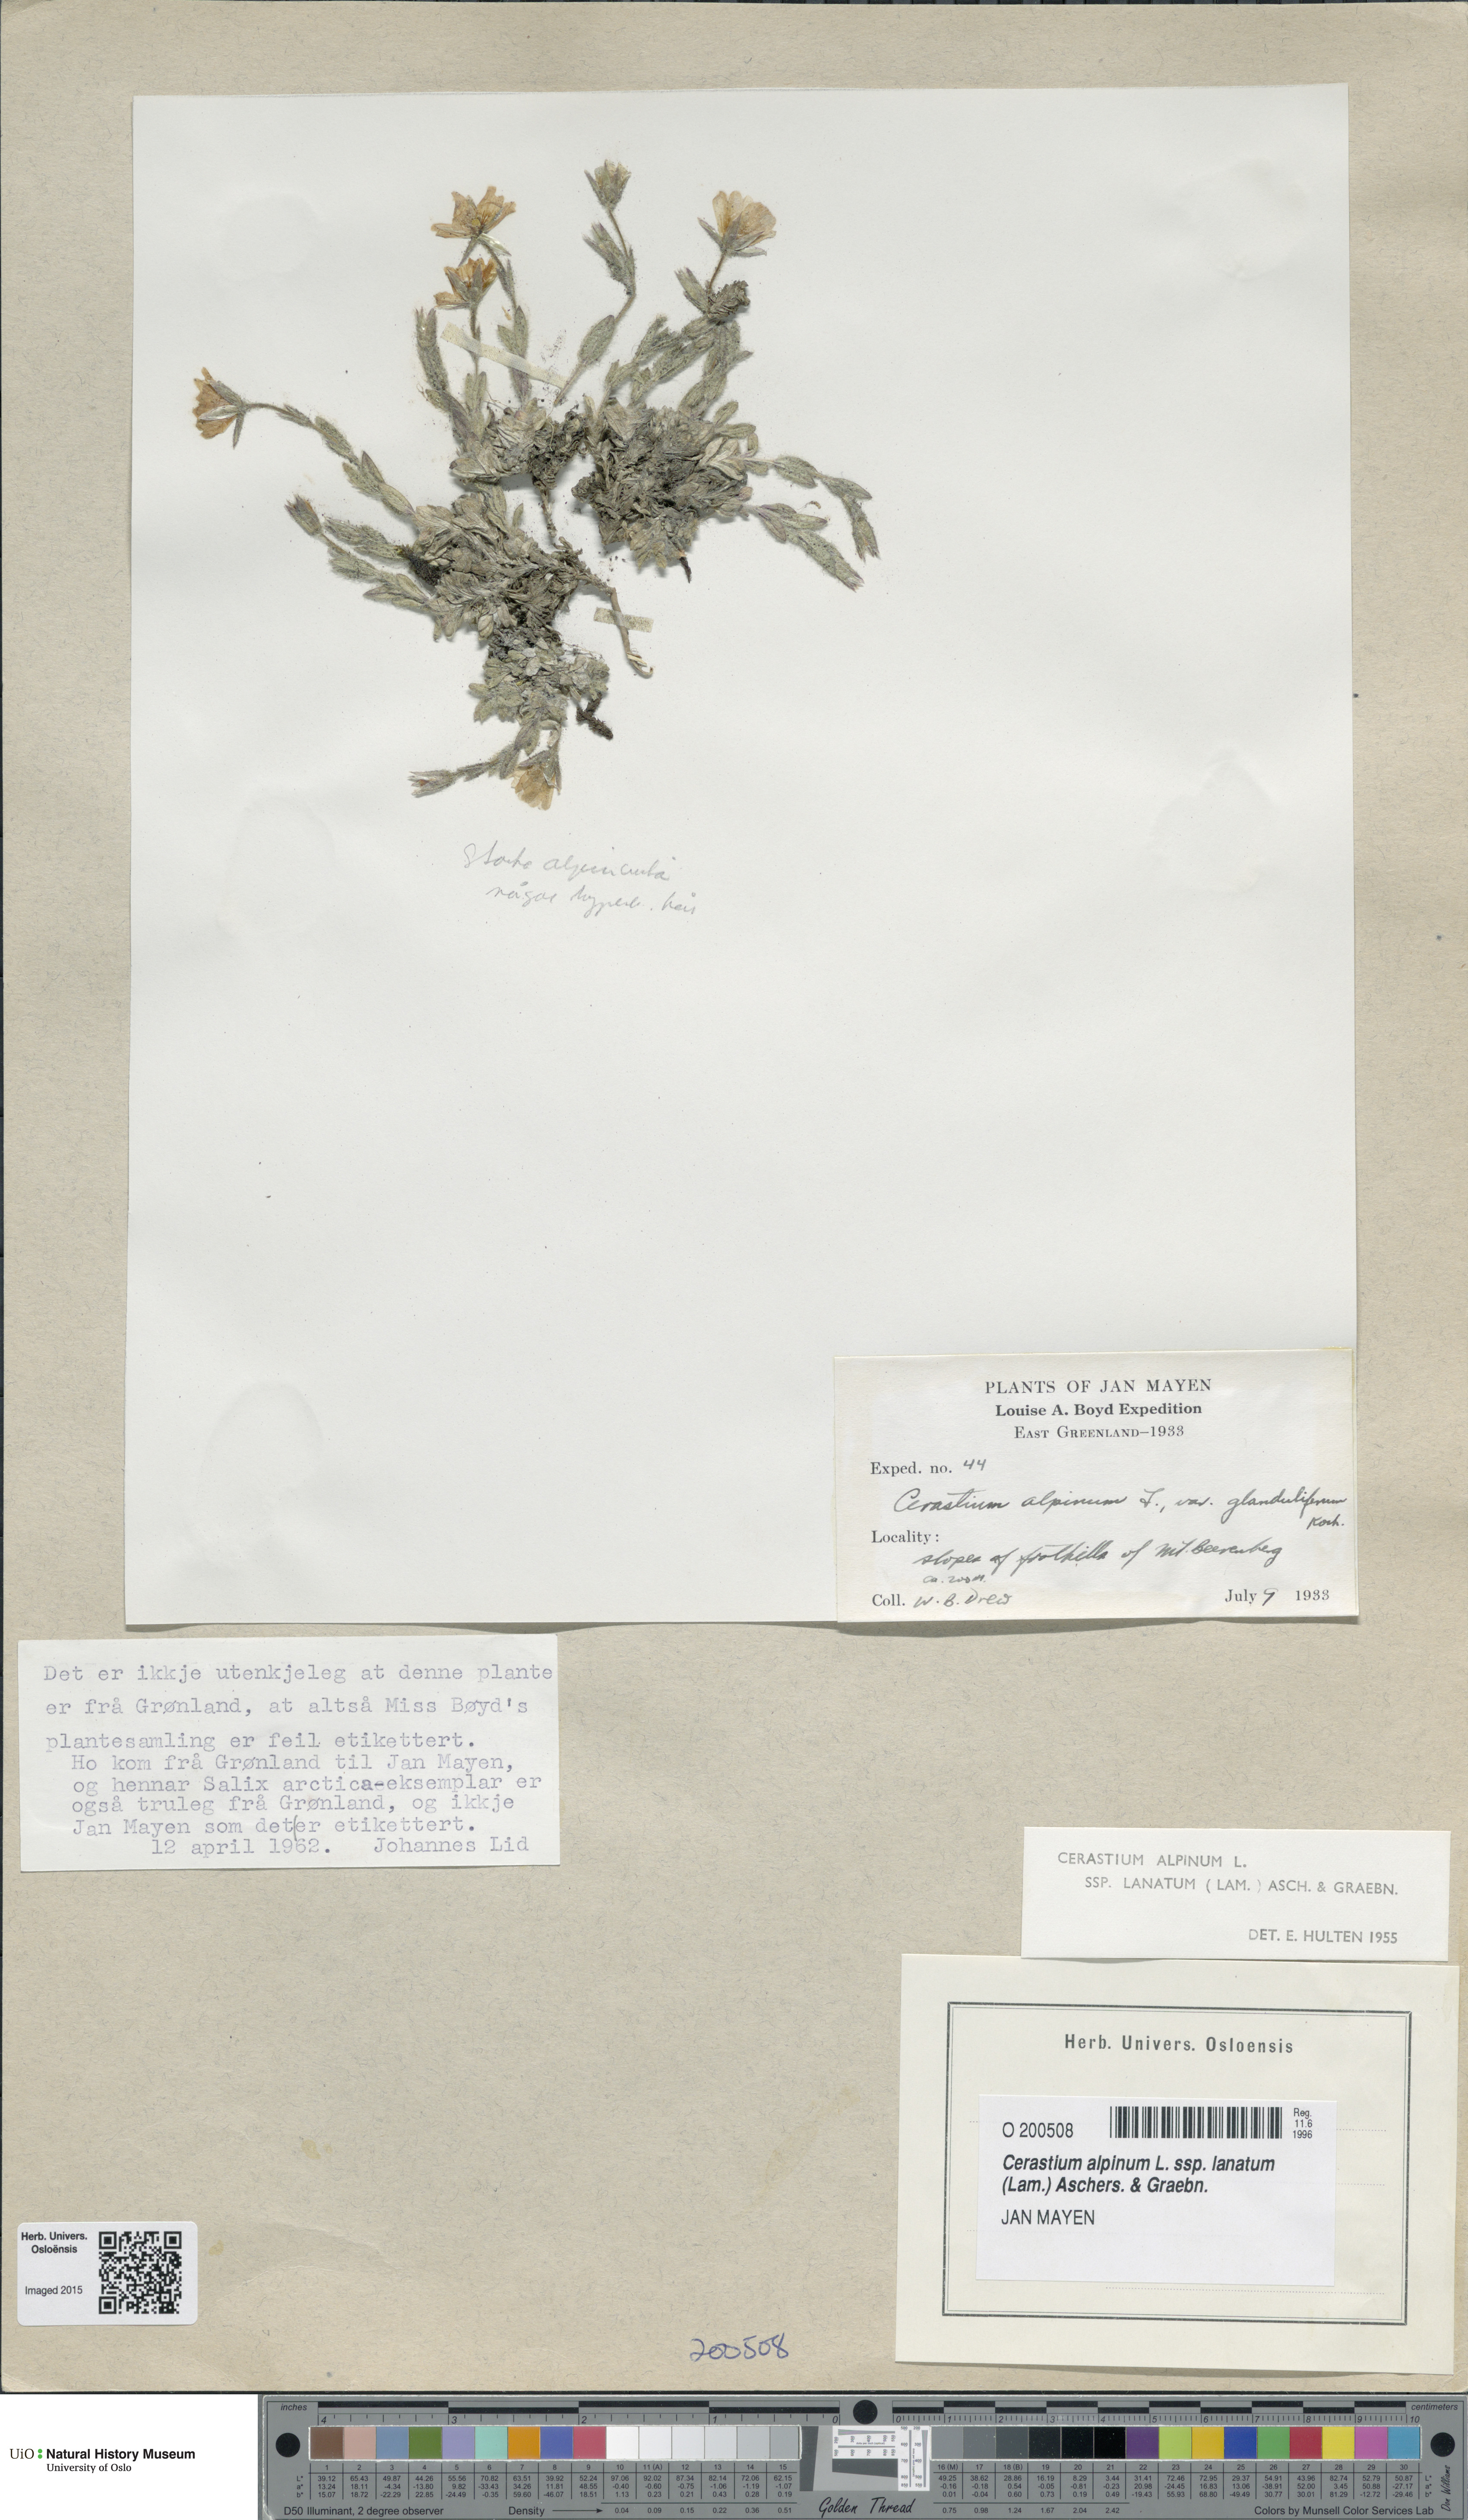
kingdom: Plantae
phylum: Tracheophyta
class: Magnoliopsida
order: Caryophyllales
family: Caryophyllaceae
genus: Cerastium
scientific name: Cerastium alpinum
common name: Alpine mouse-ear
